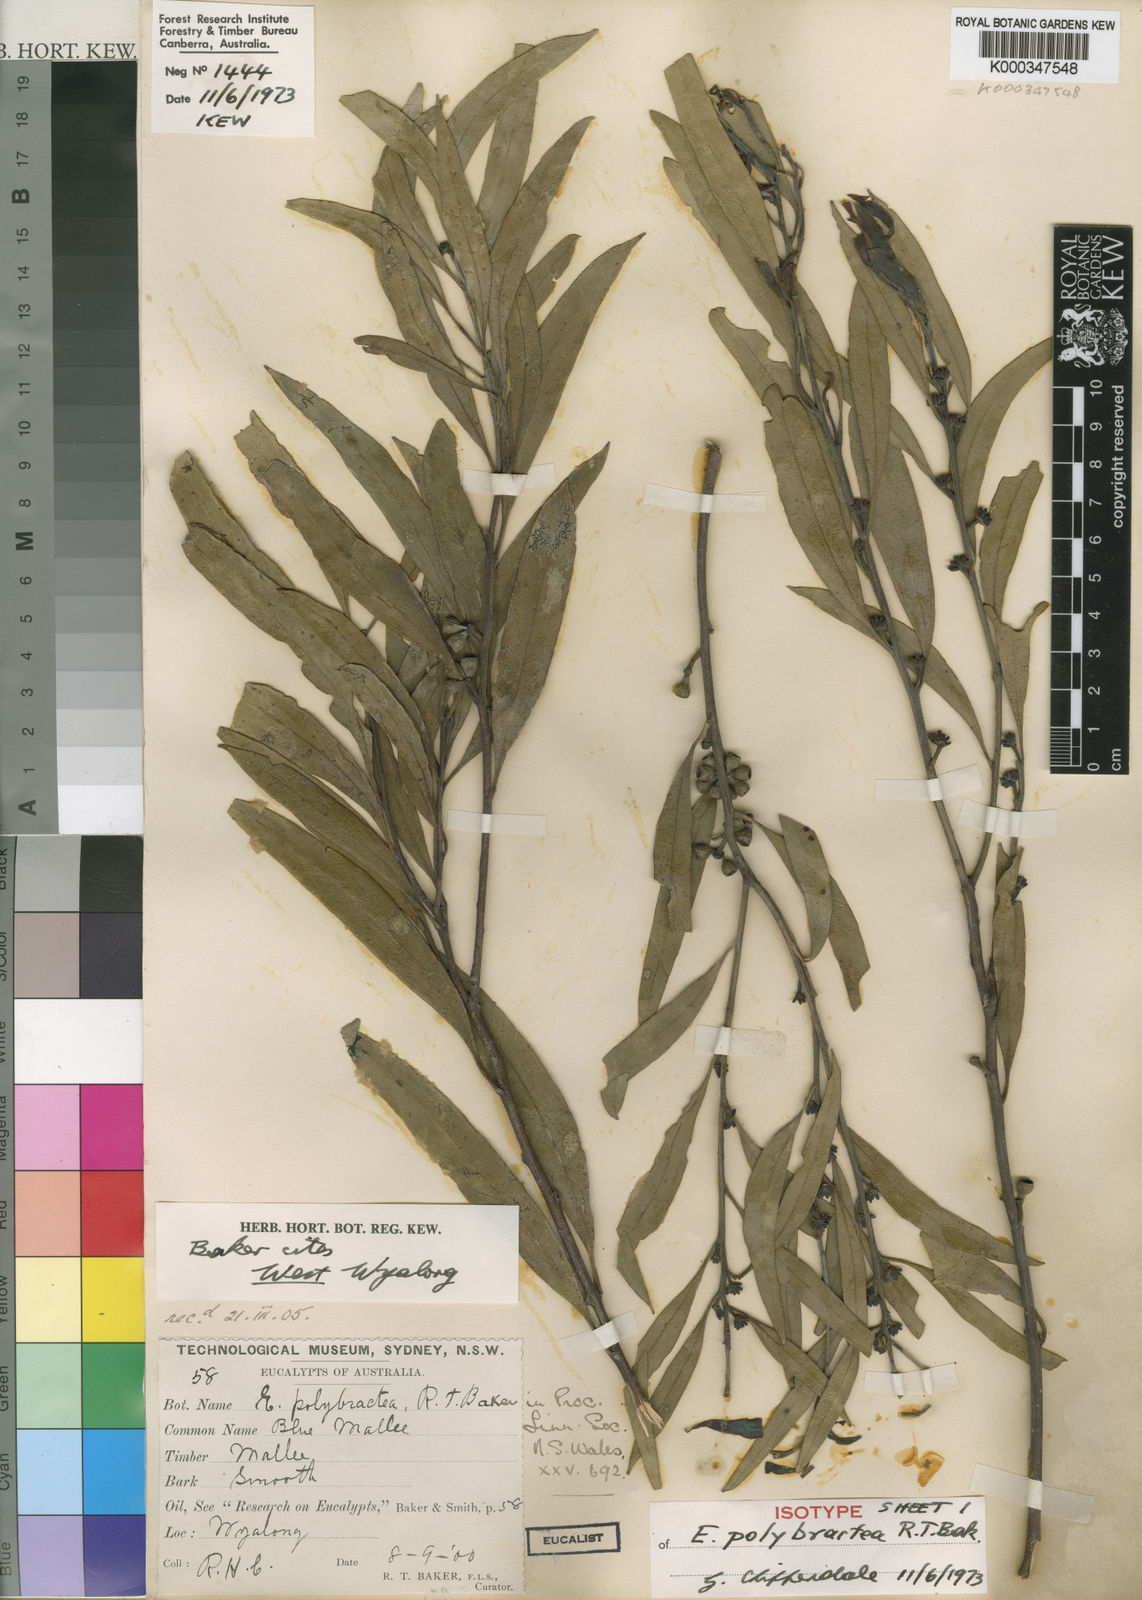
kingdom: Plantae
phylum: Tracheophyta
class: Magnoliopsida
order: Myrtales
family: Myrtaceae
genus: Eucalyptus
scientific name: Eucalyptus polybractea
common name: Blue mallee
